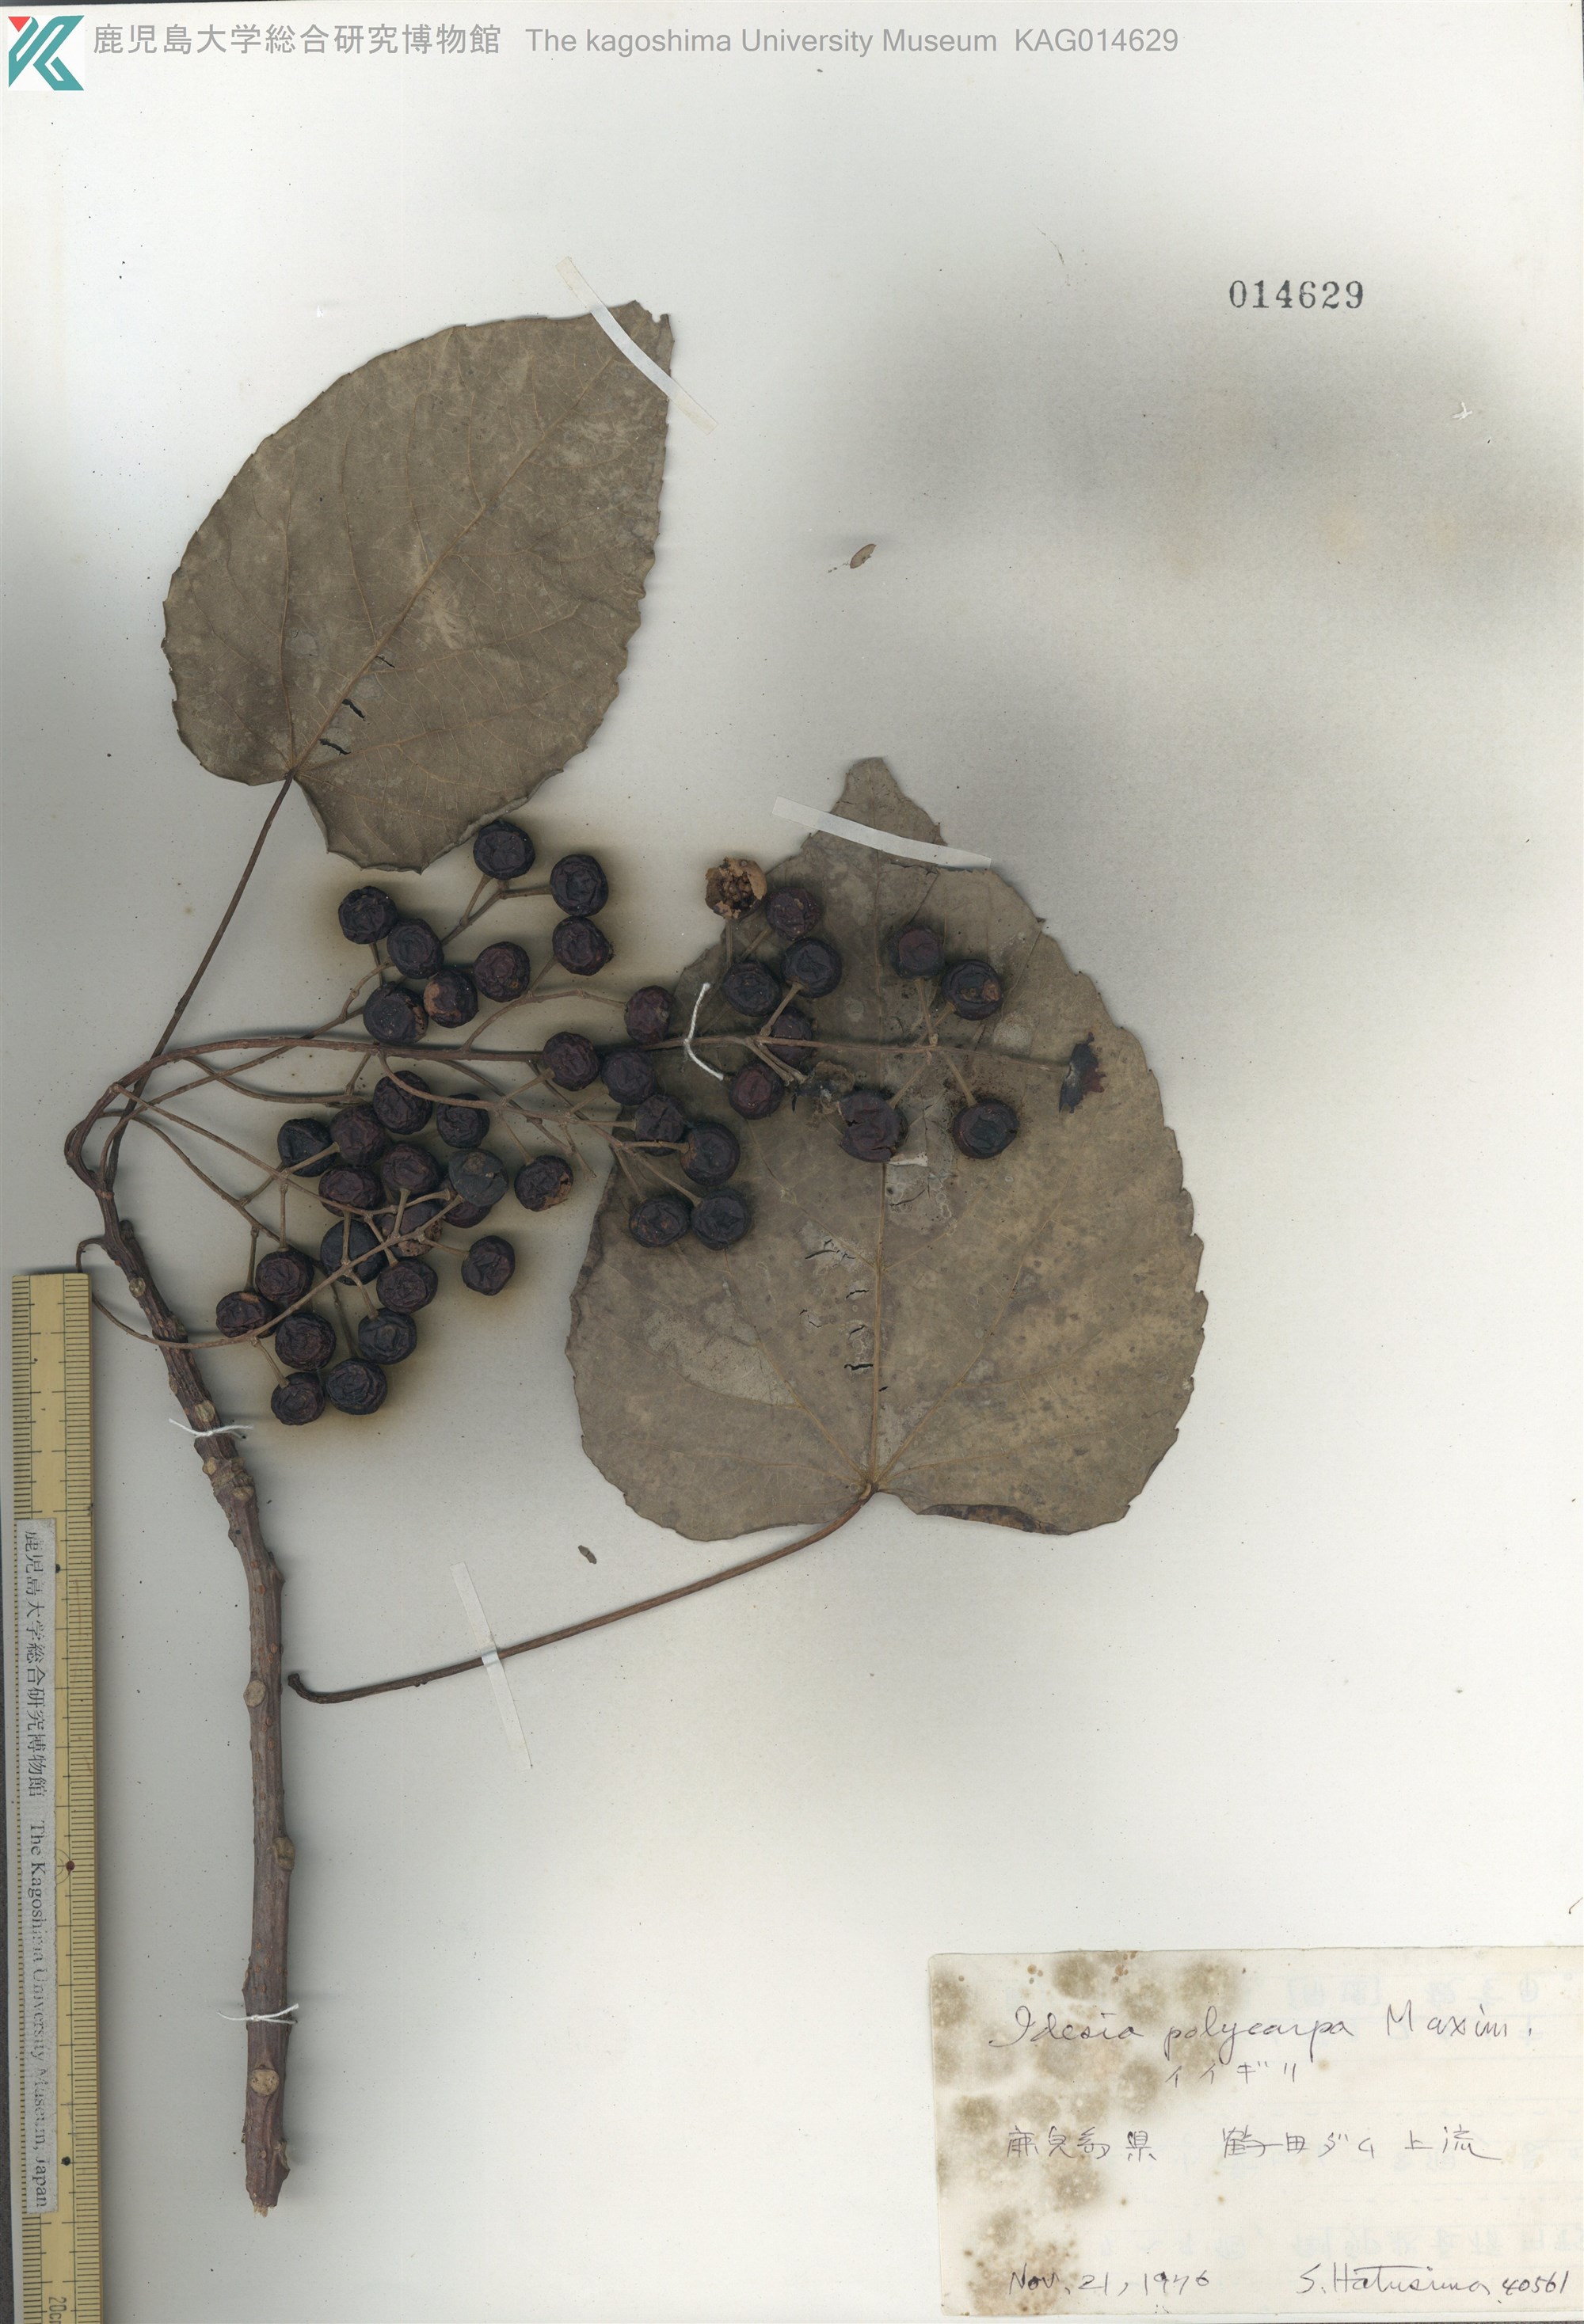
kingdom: Plantae
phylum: Tracheophyta
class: Magnoliopsida
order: Malpighiales
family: Salicaceae
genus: Idesia
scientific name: Idesia polycarpa
